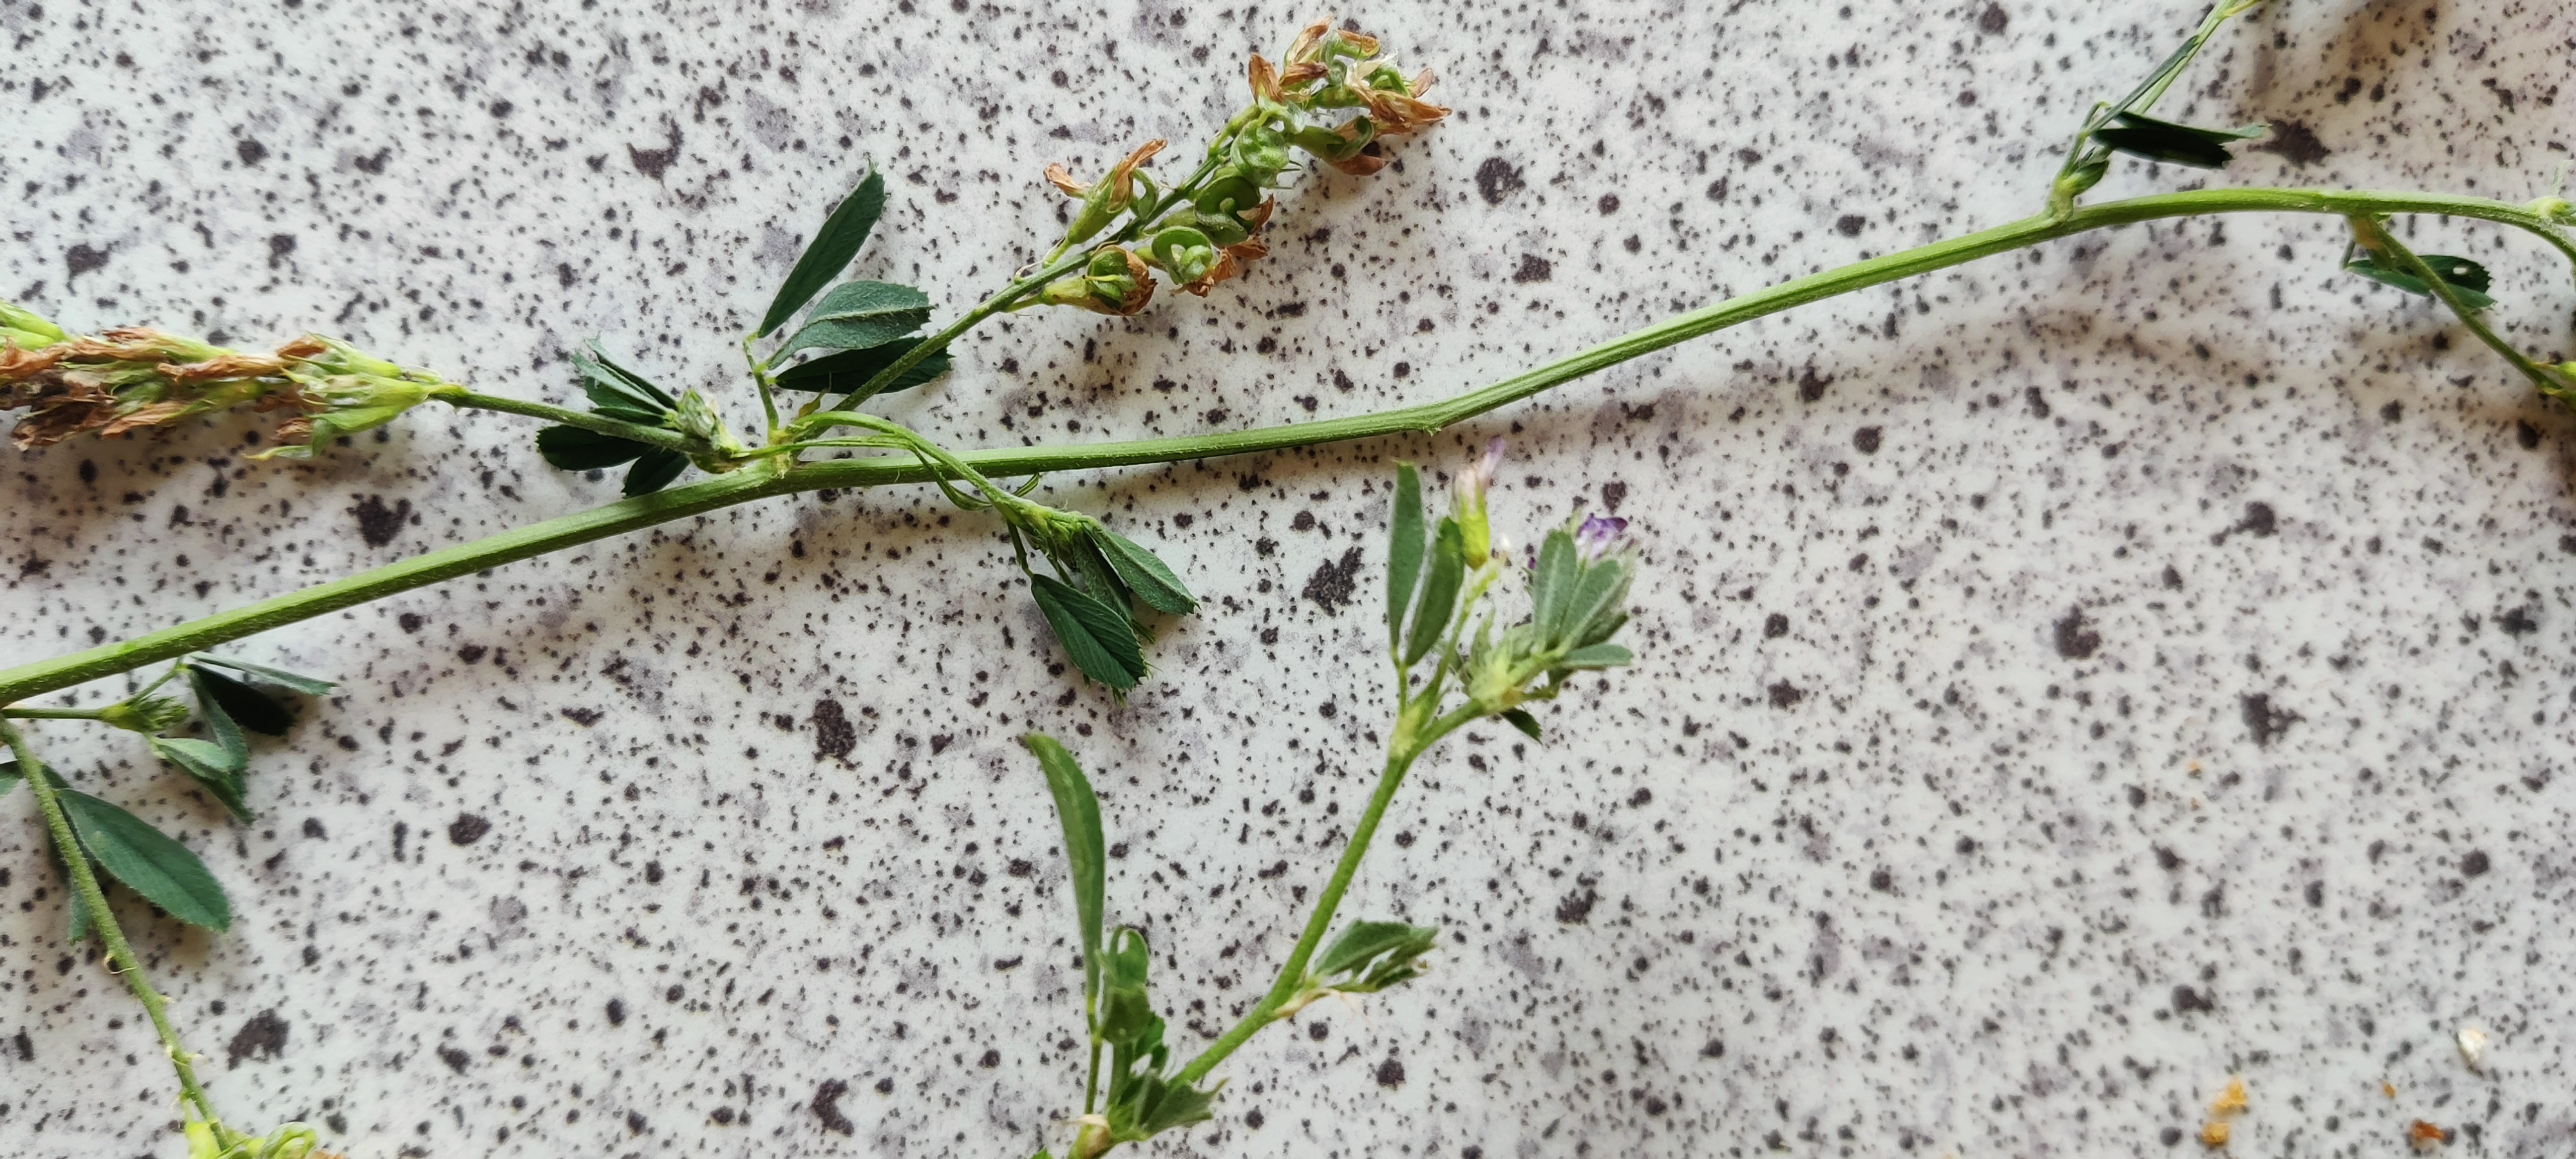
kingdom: Plantae
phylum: Tracheophyta
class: Magnoliopsida
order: Fabales
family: Fabaceae
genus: Medicago
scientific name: Medicago sativa
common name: Foderlucerne
